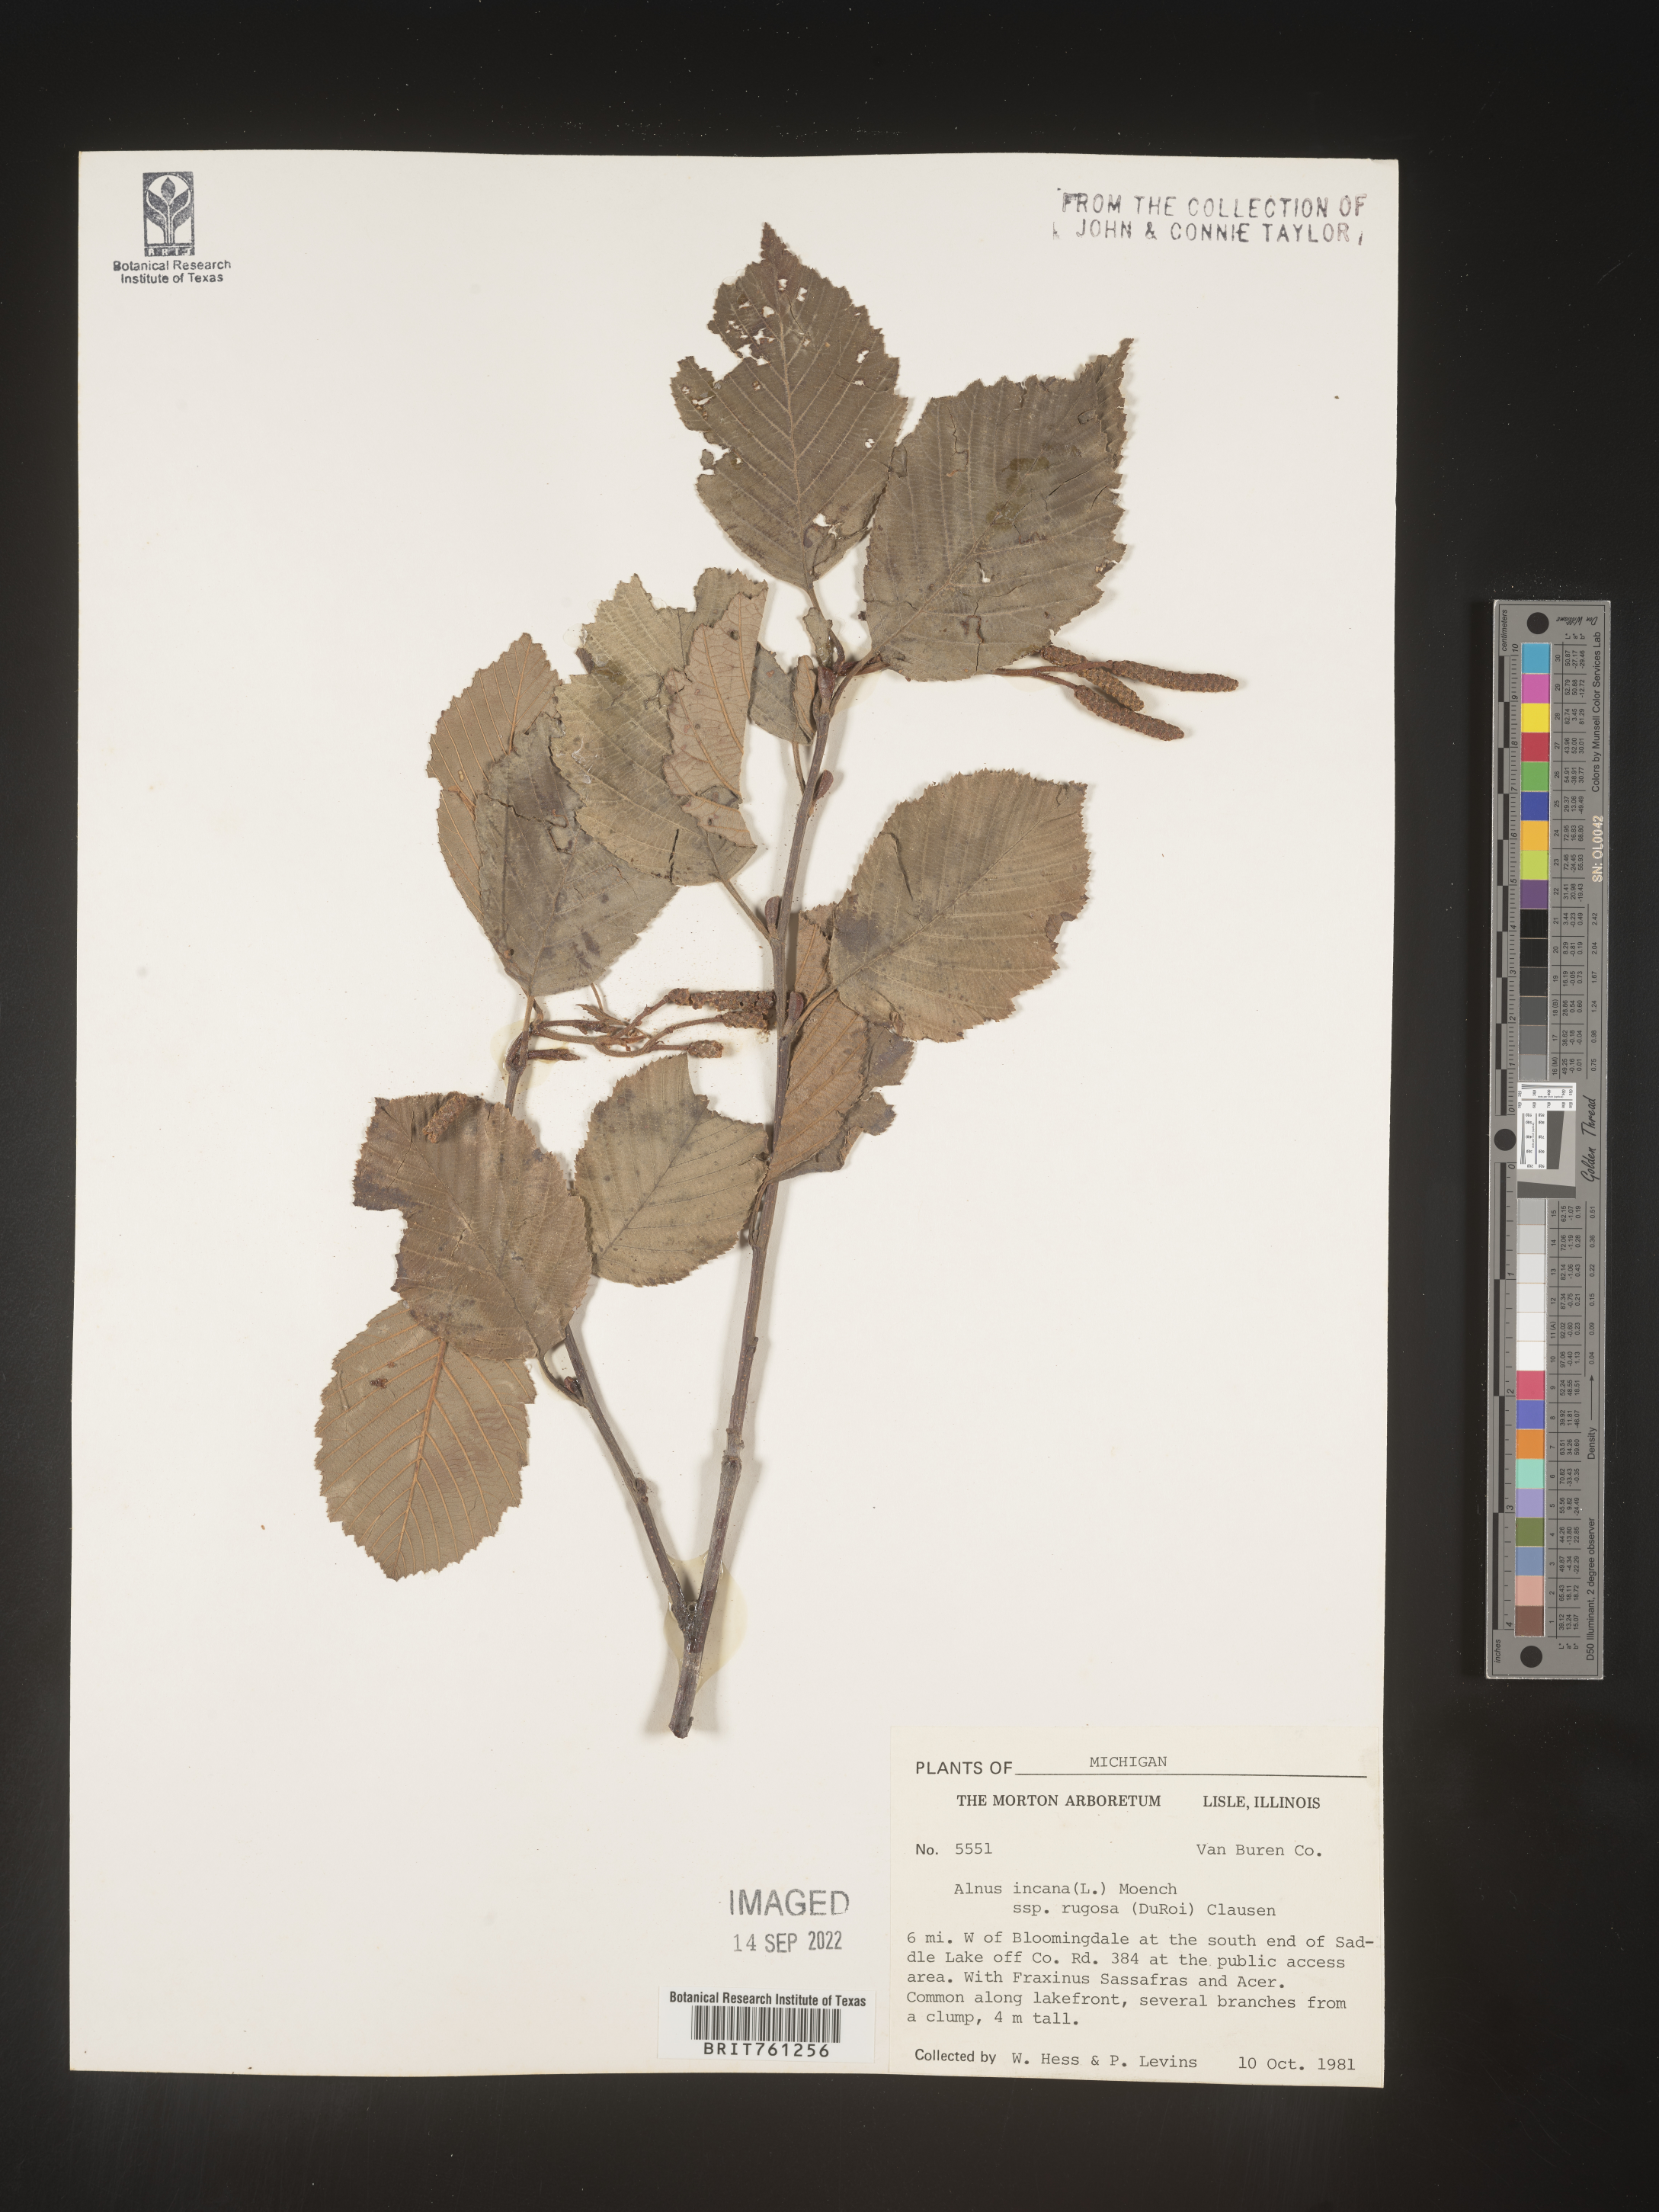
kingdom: Plantae
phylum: Tracheophyta
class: Magnoliopsida
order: Fagales
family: Betulaceae
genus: Alnus
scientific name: Alnus incana
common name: Grey alder
